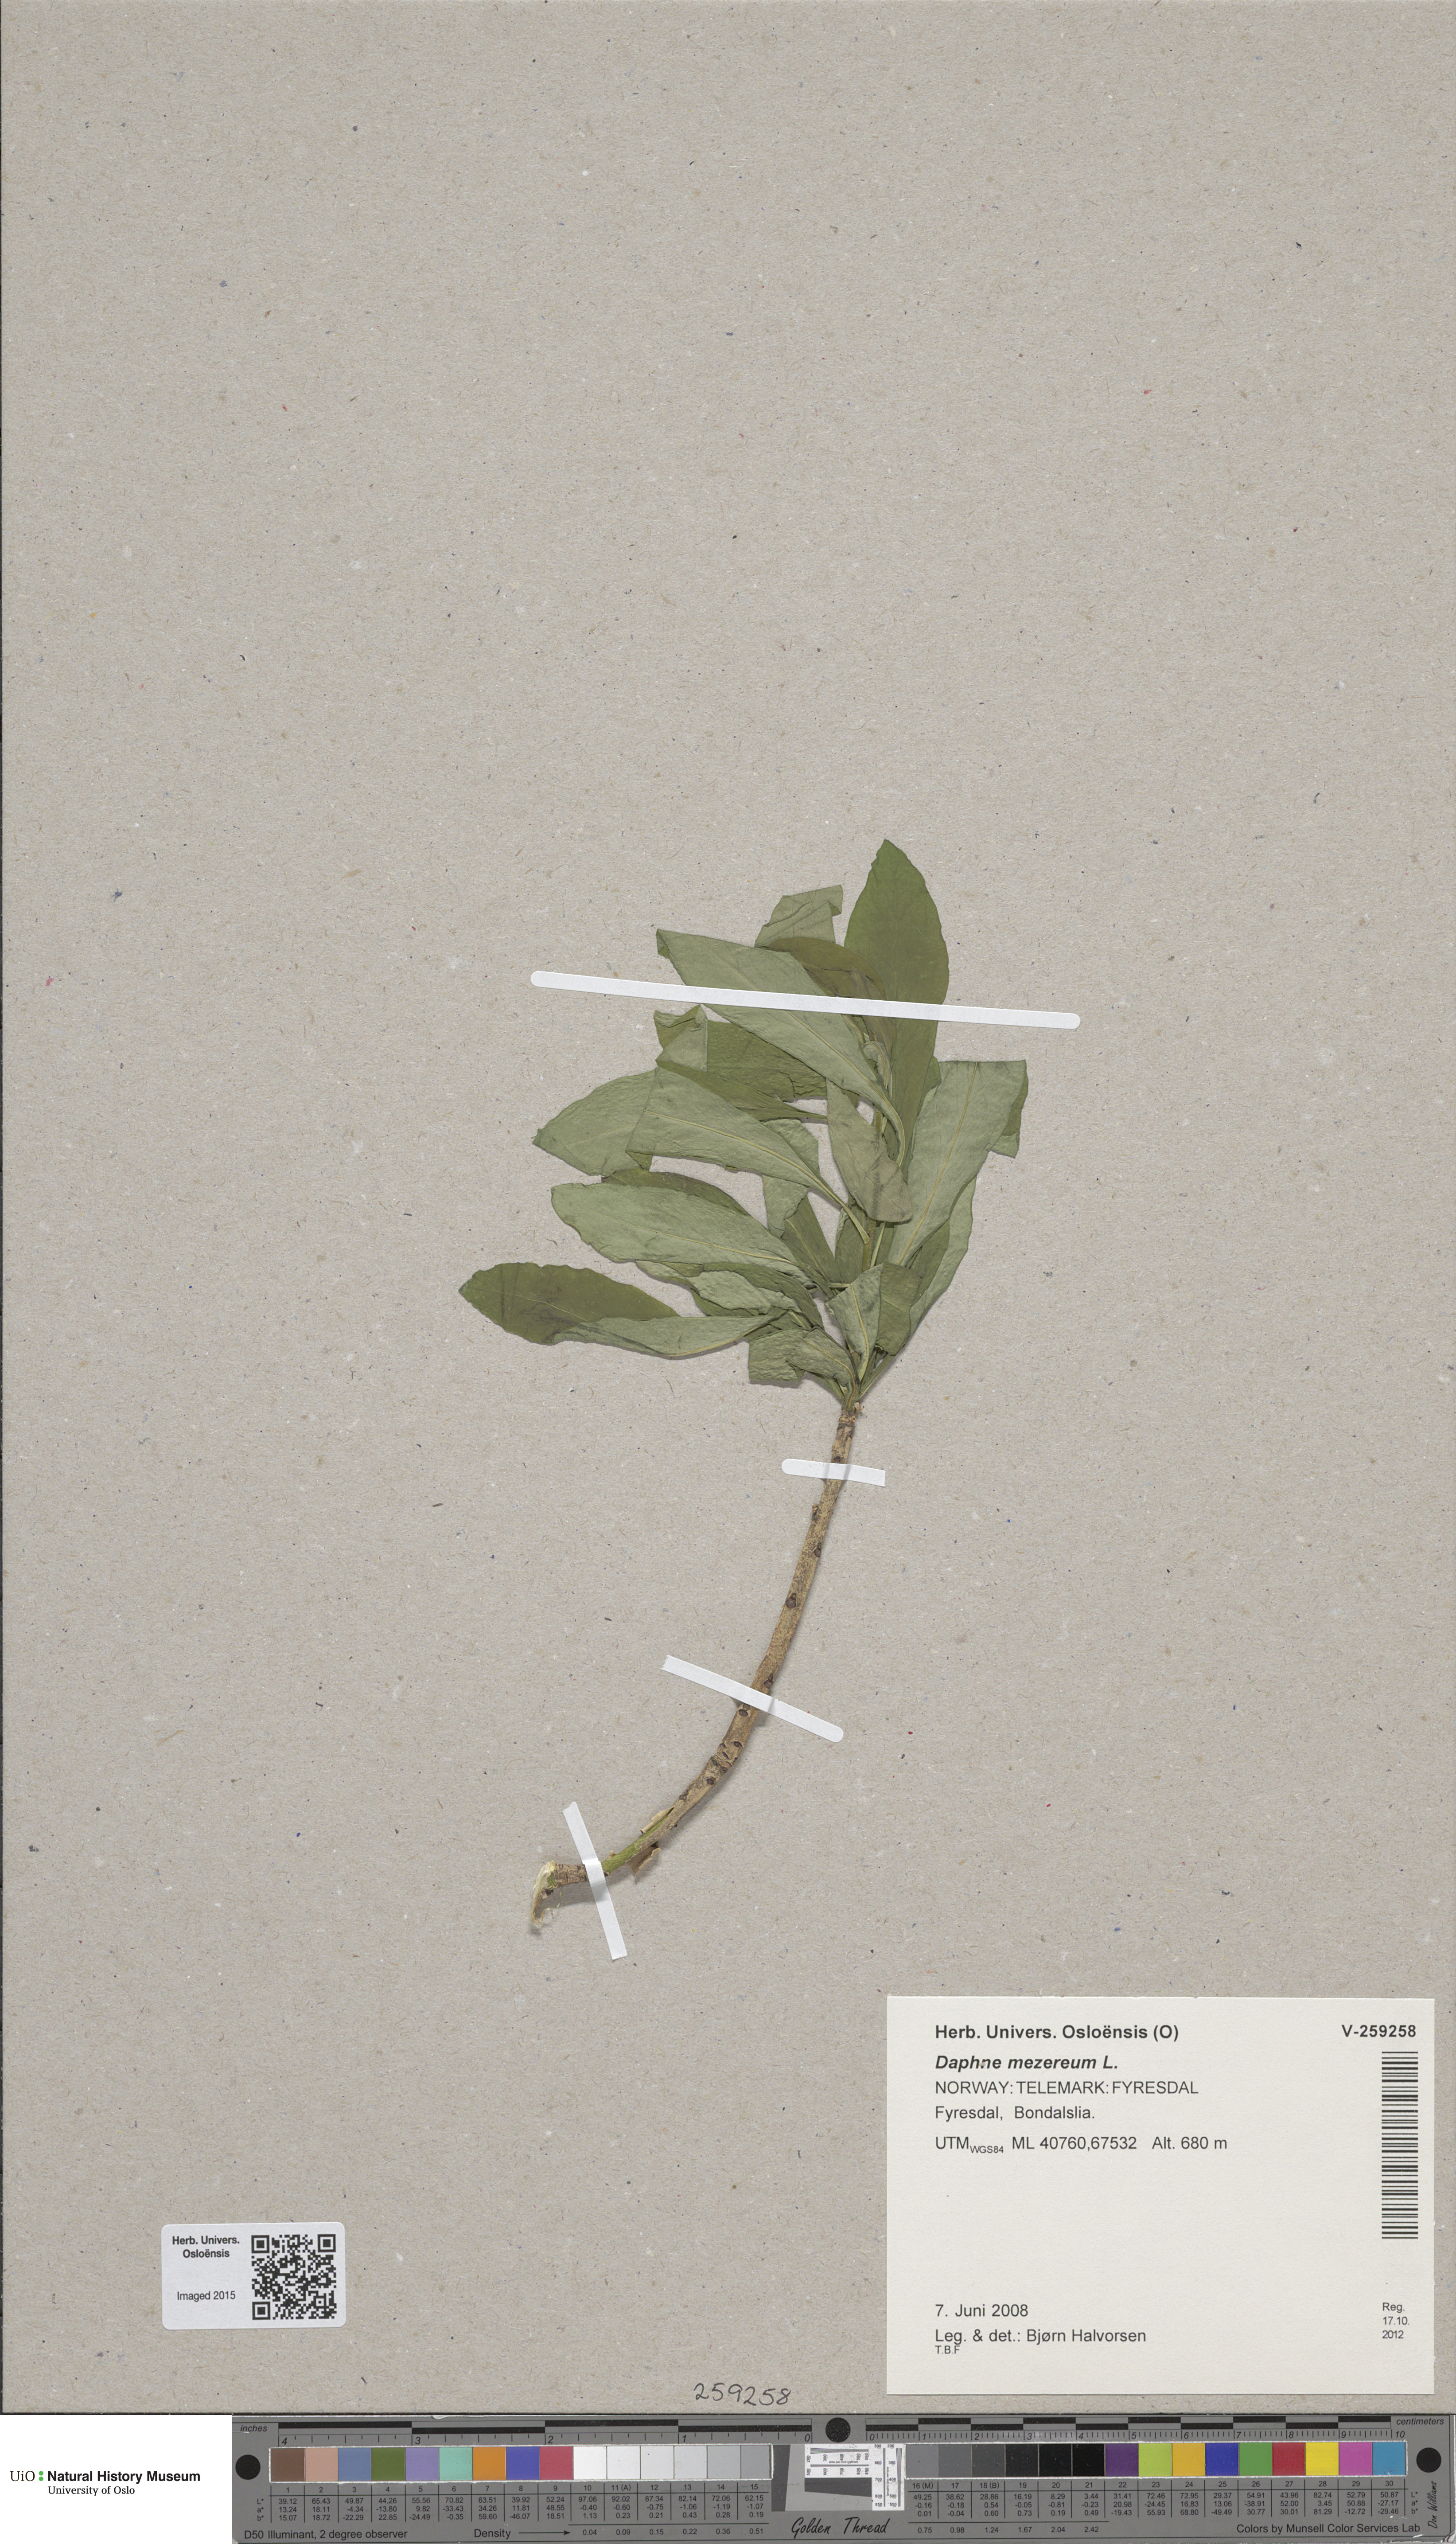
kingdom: Plantae
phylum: Tracheophyta
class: Magnoliopsida
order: Malvales
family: Thymelaeaceae
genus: Daphne
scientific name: Daphne mezereum
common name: Mezereon
